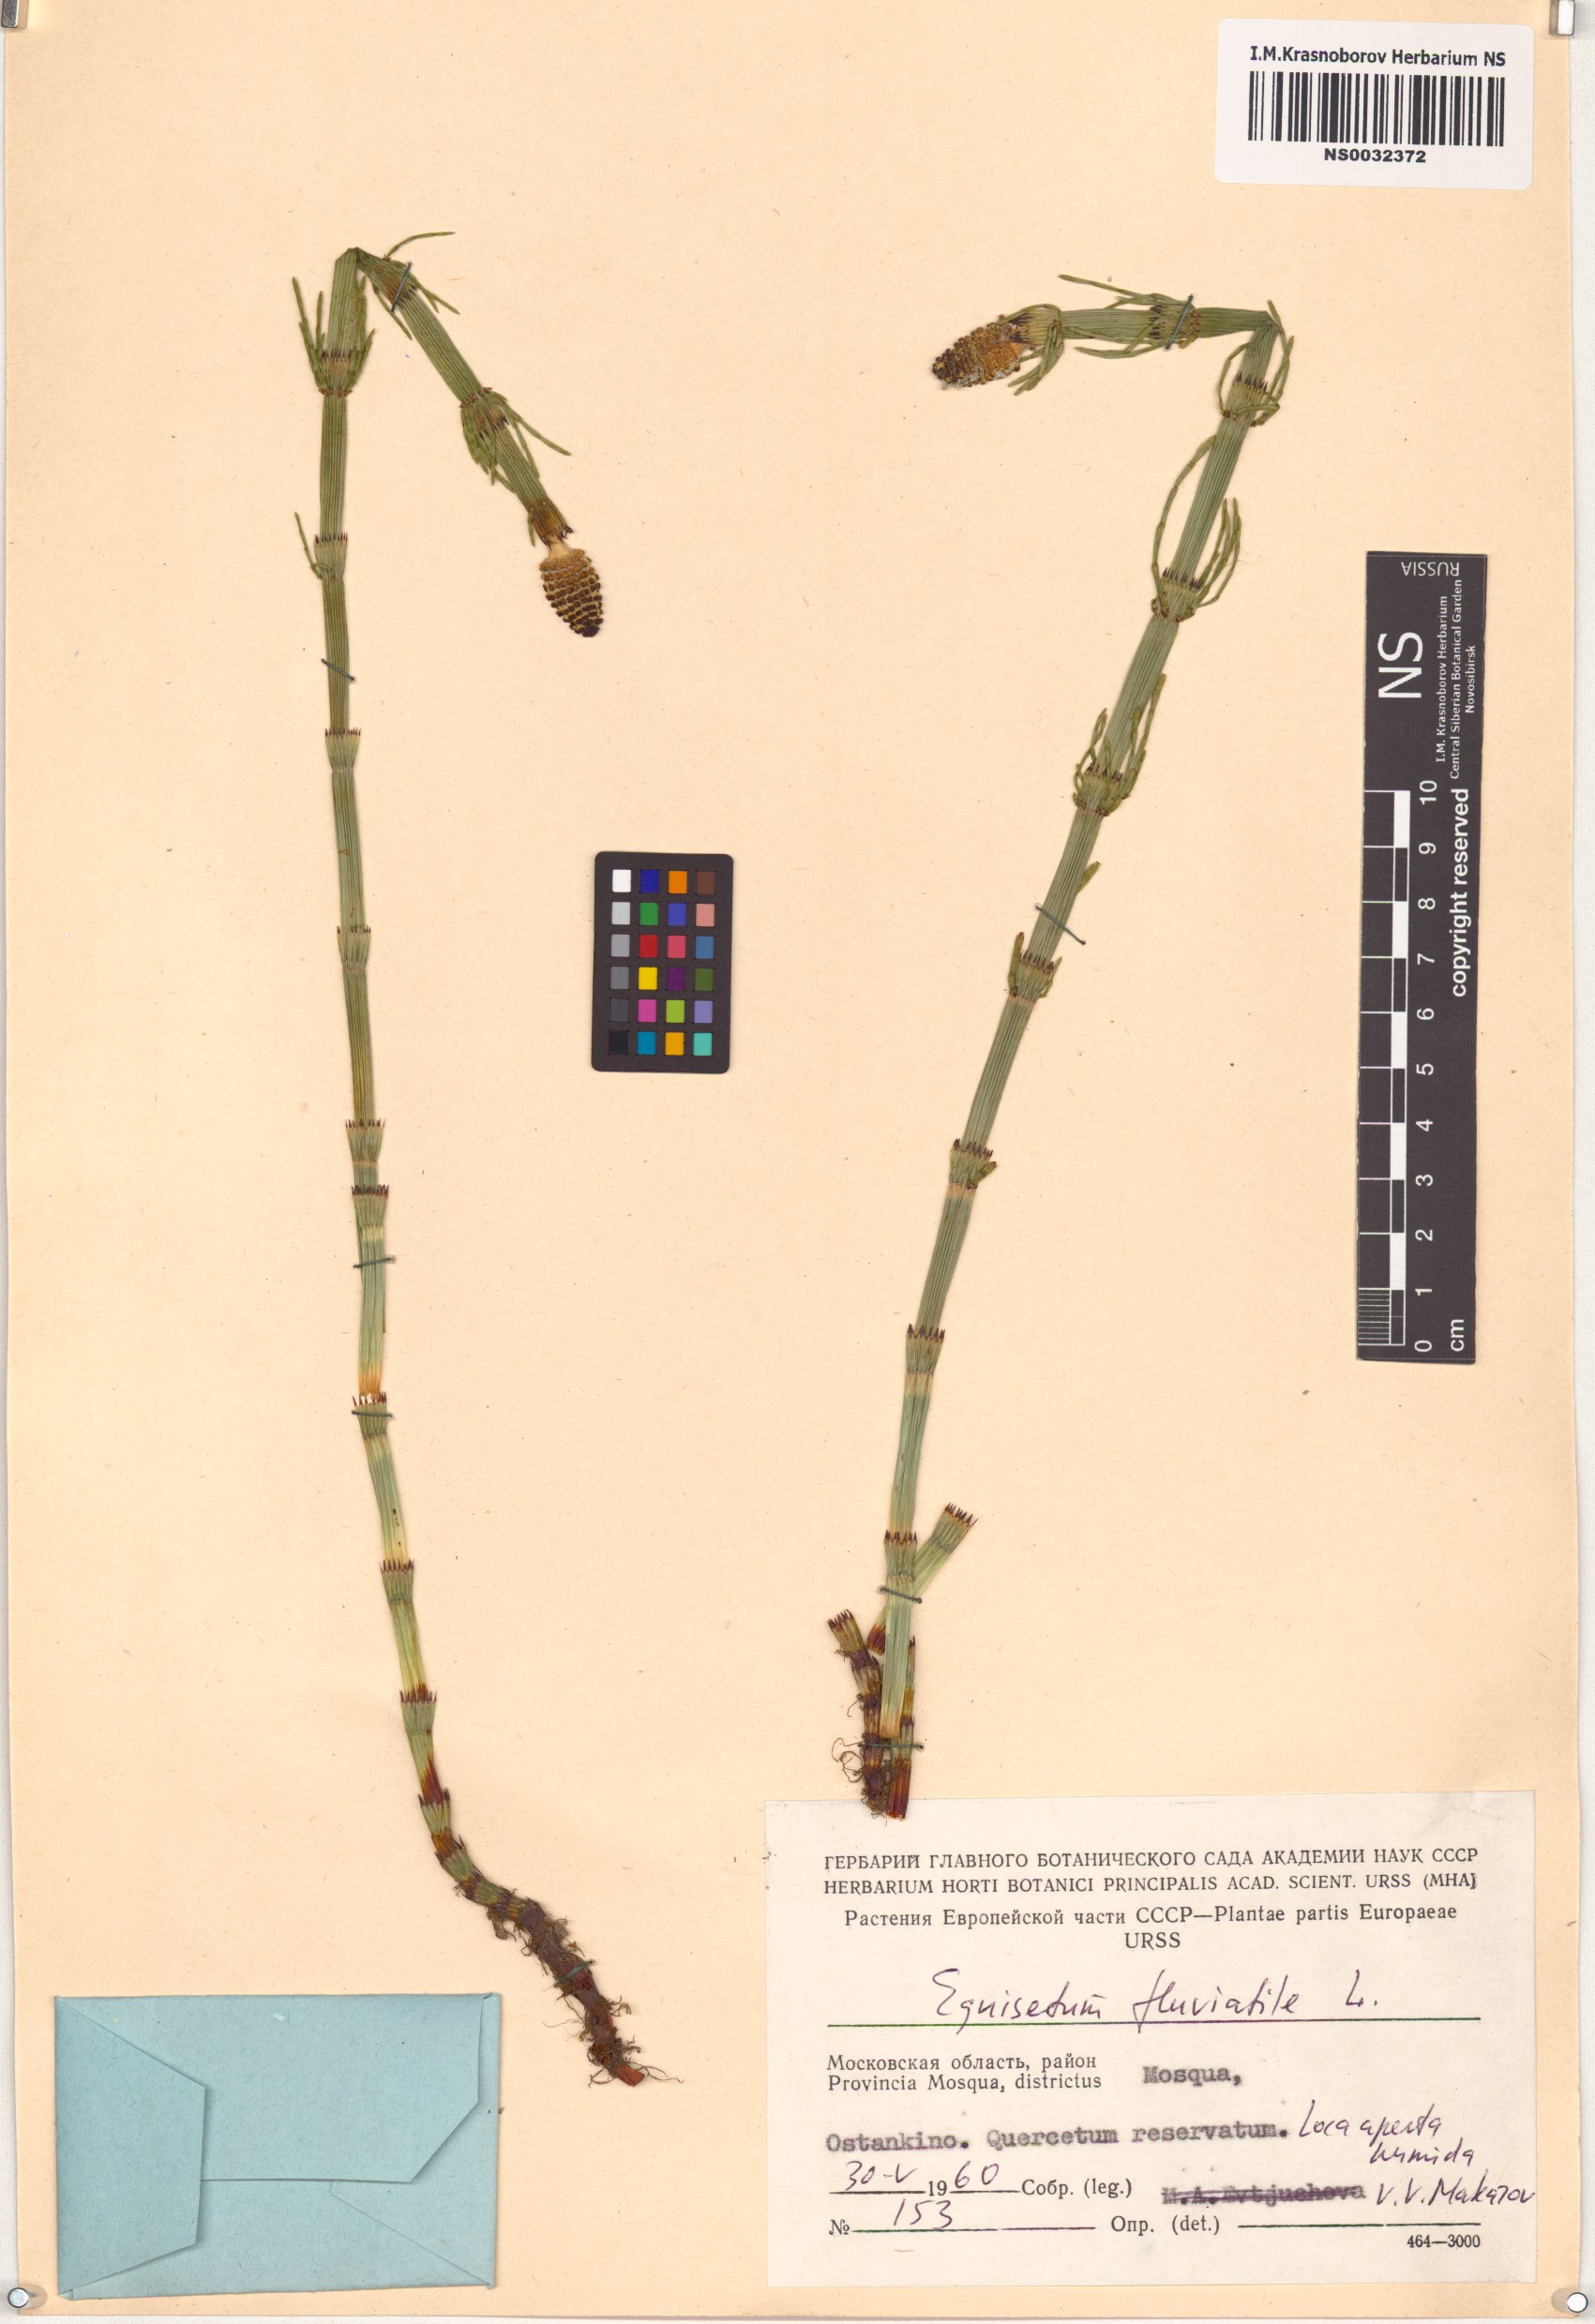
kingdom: Plantae
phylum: Tracheophyta
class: Polypodiopsida
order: Equisetales
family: Equisetaceae
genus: Equisetum
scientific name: Equisetum fluviatile
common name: Water horsetail
